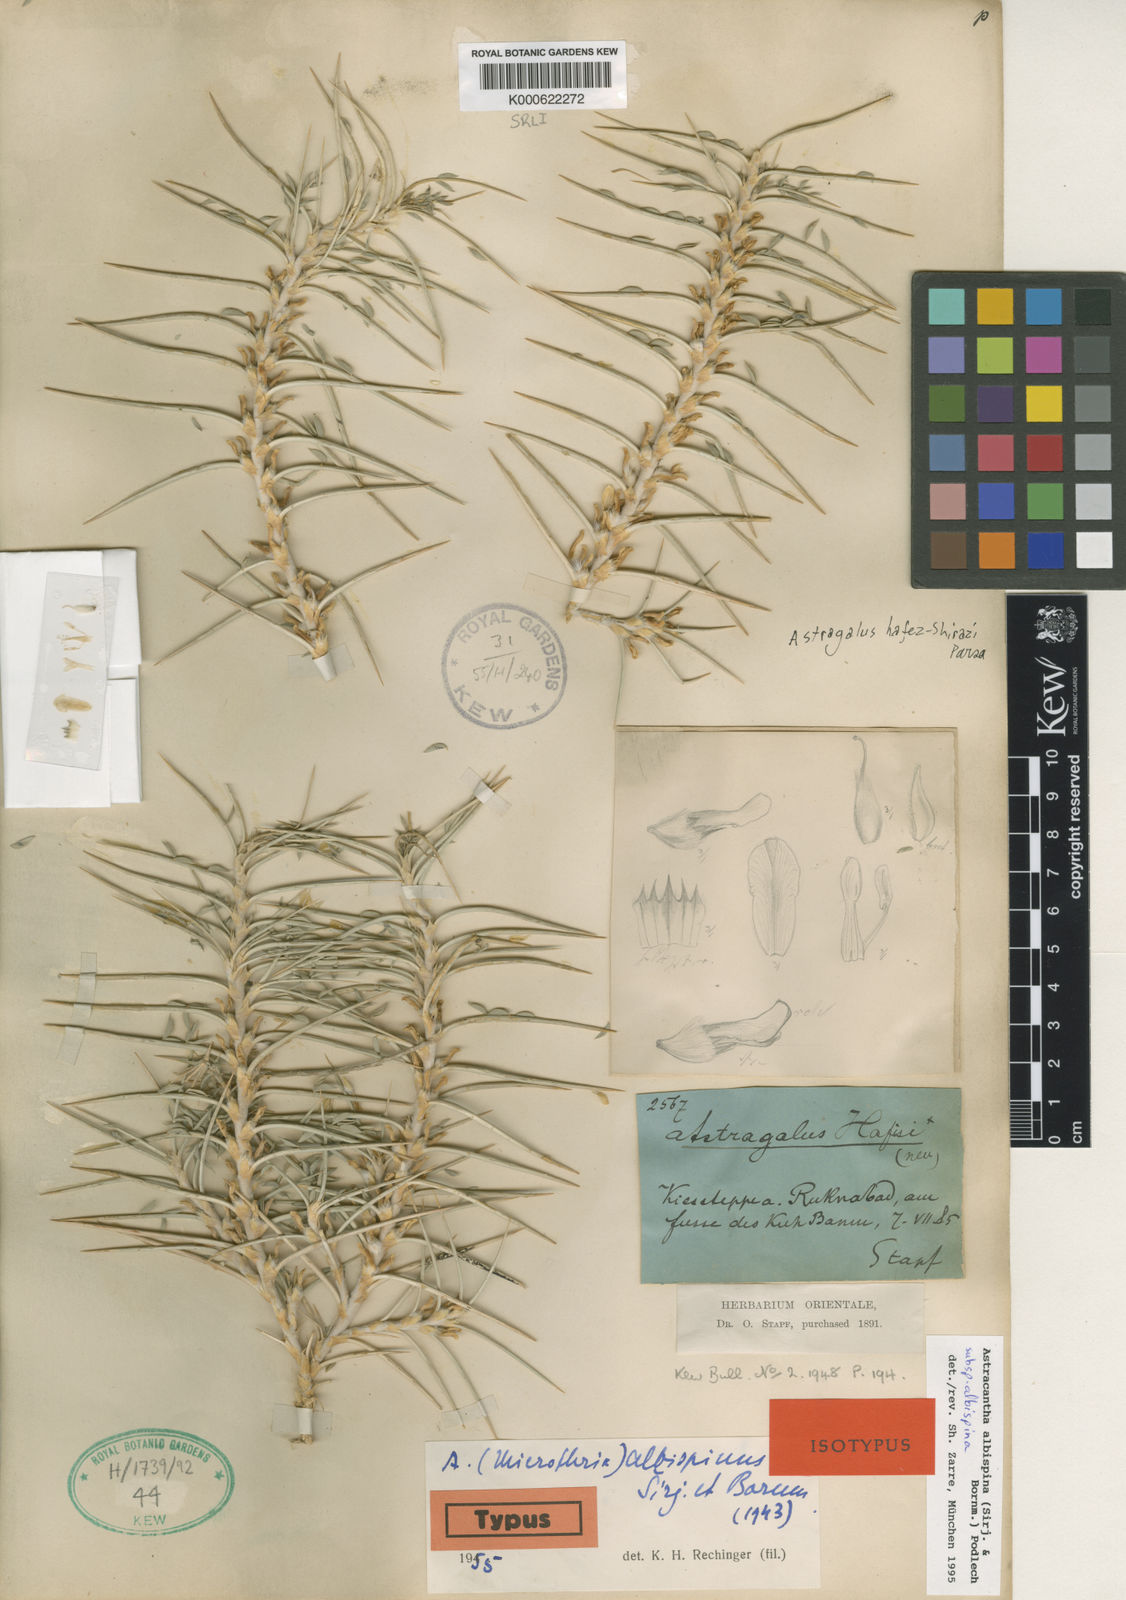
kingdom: Plantae
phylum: Tracheophyta
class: Magnoliopsida
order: Fabales
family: Fabaceae
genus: Astragalus
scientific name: Astragalus
